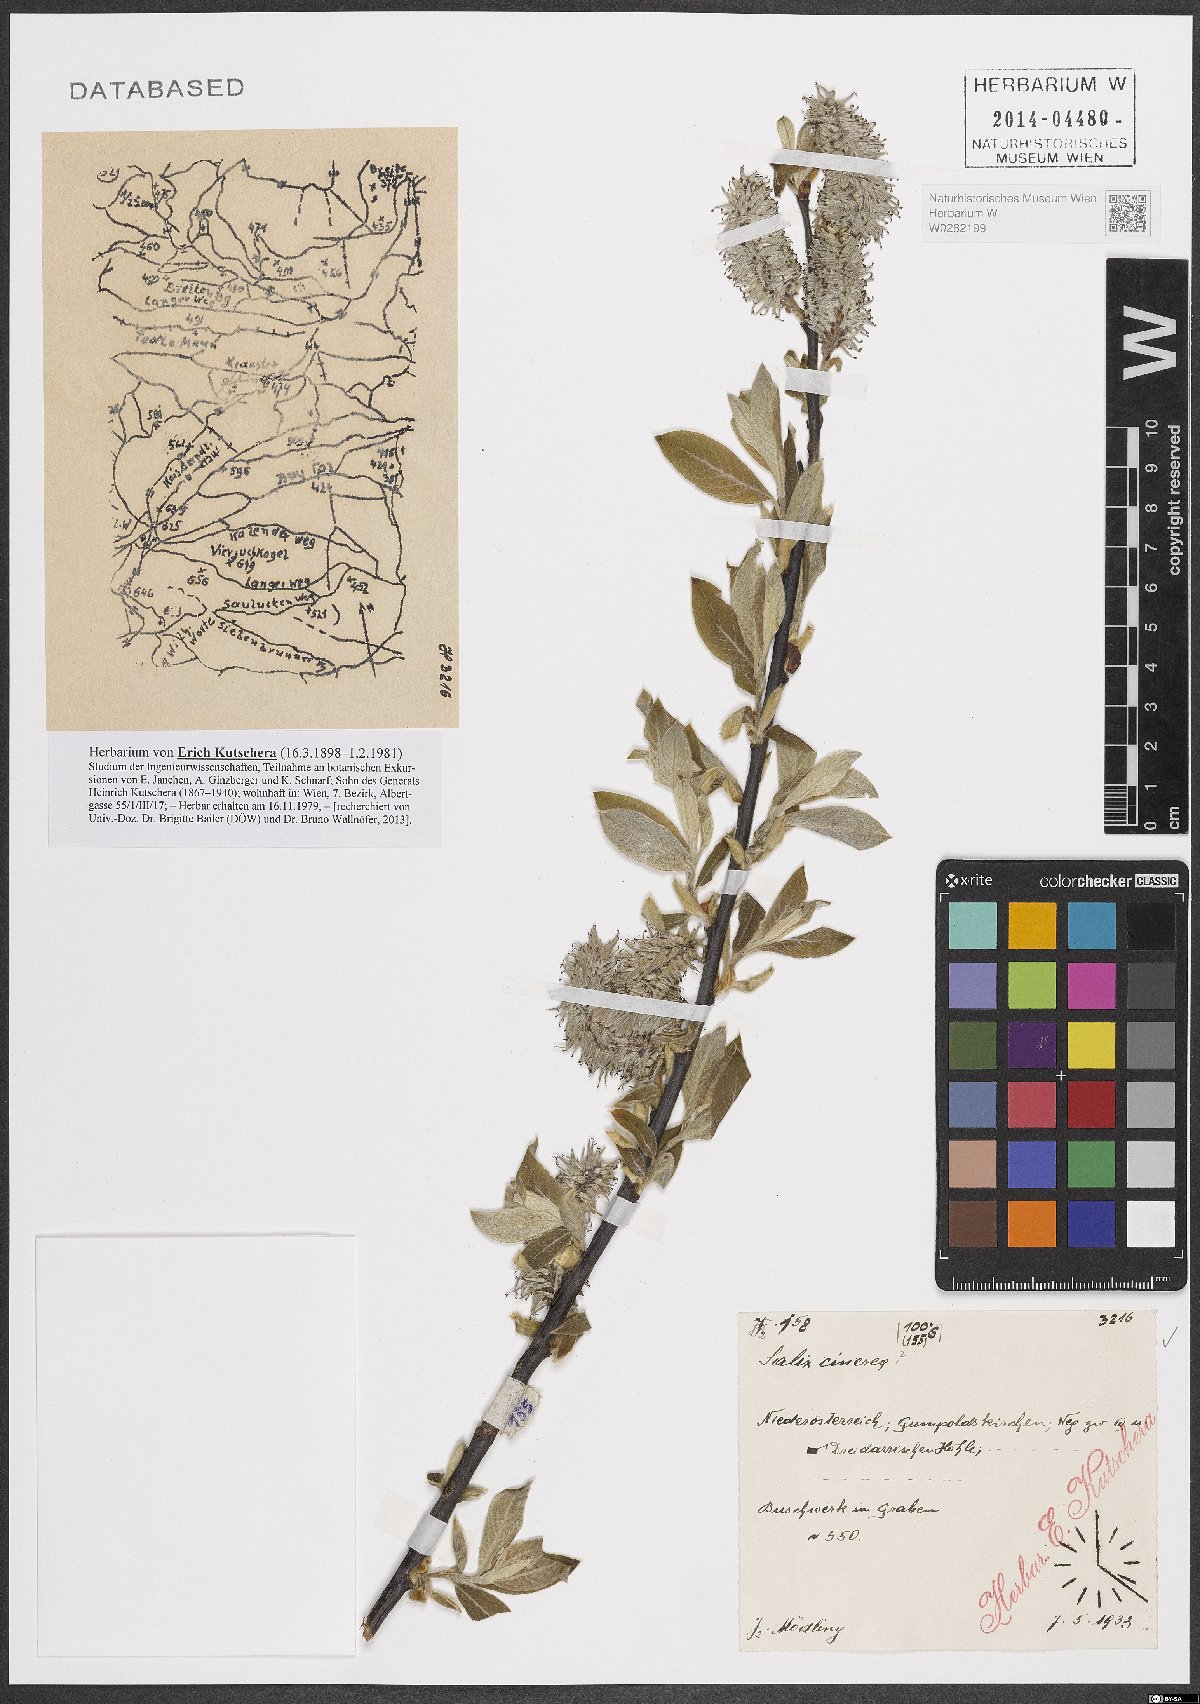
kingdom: Plantae
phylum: Tracheophyta
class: Magnoliopsida
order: Malpighiales
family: Salicaceae
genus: Salix
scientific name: Salix cinerea
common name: Common sallow
